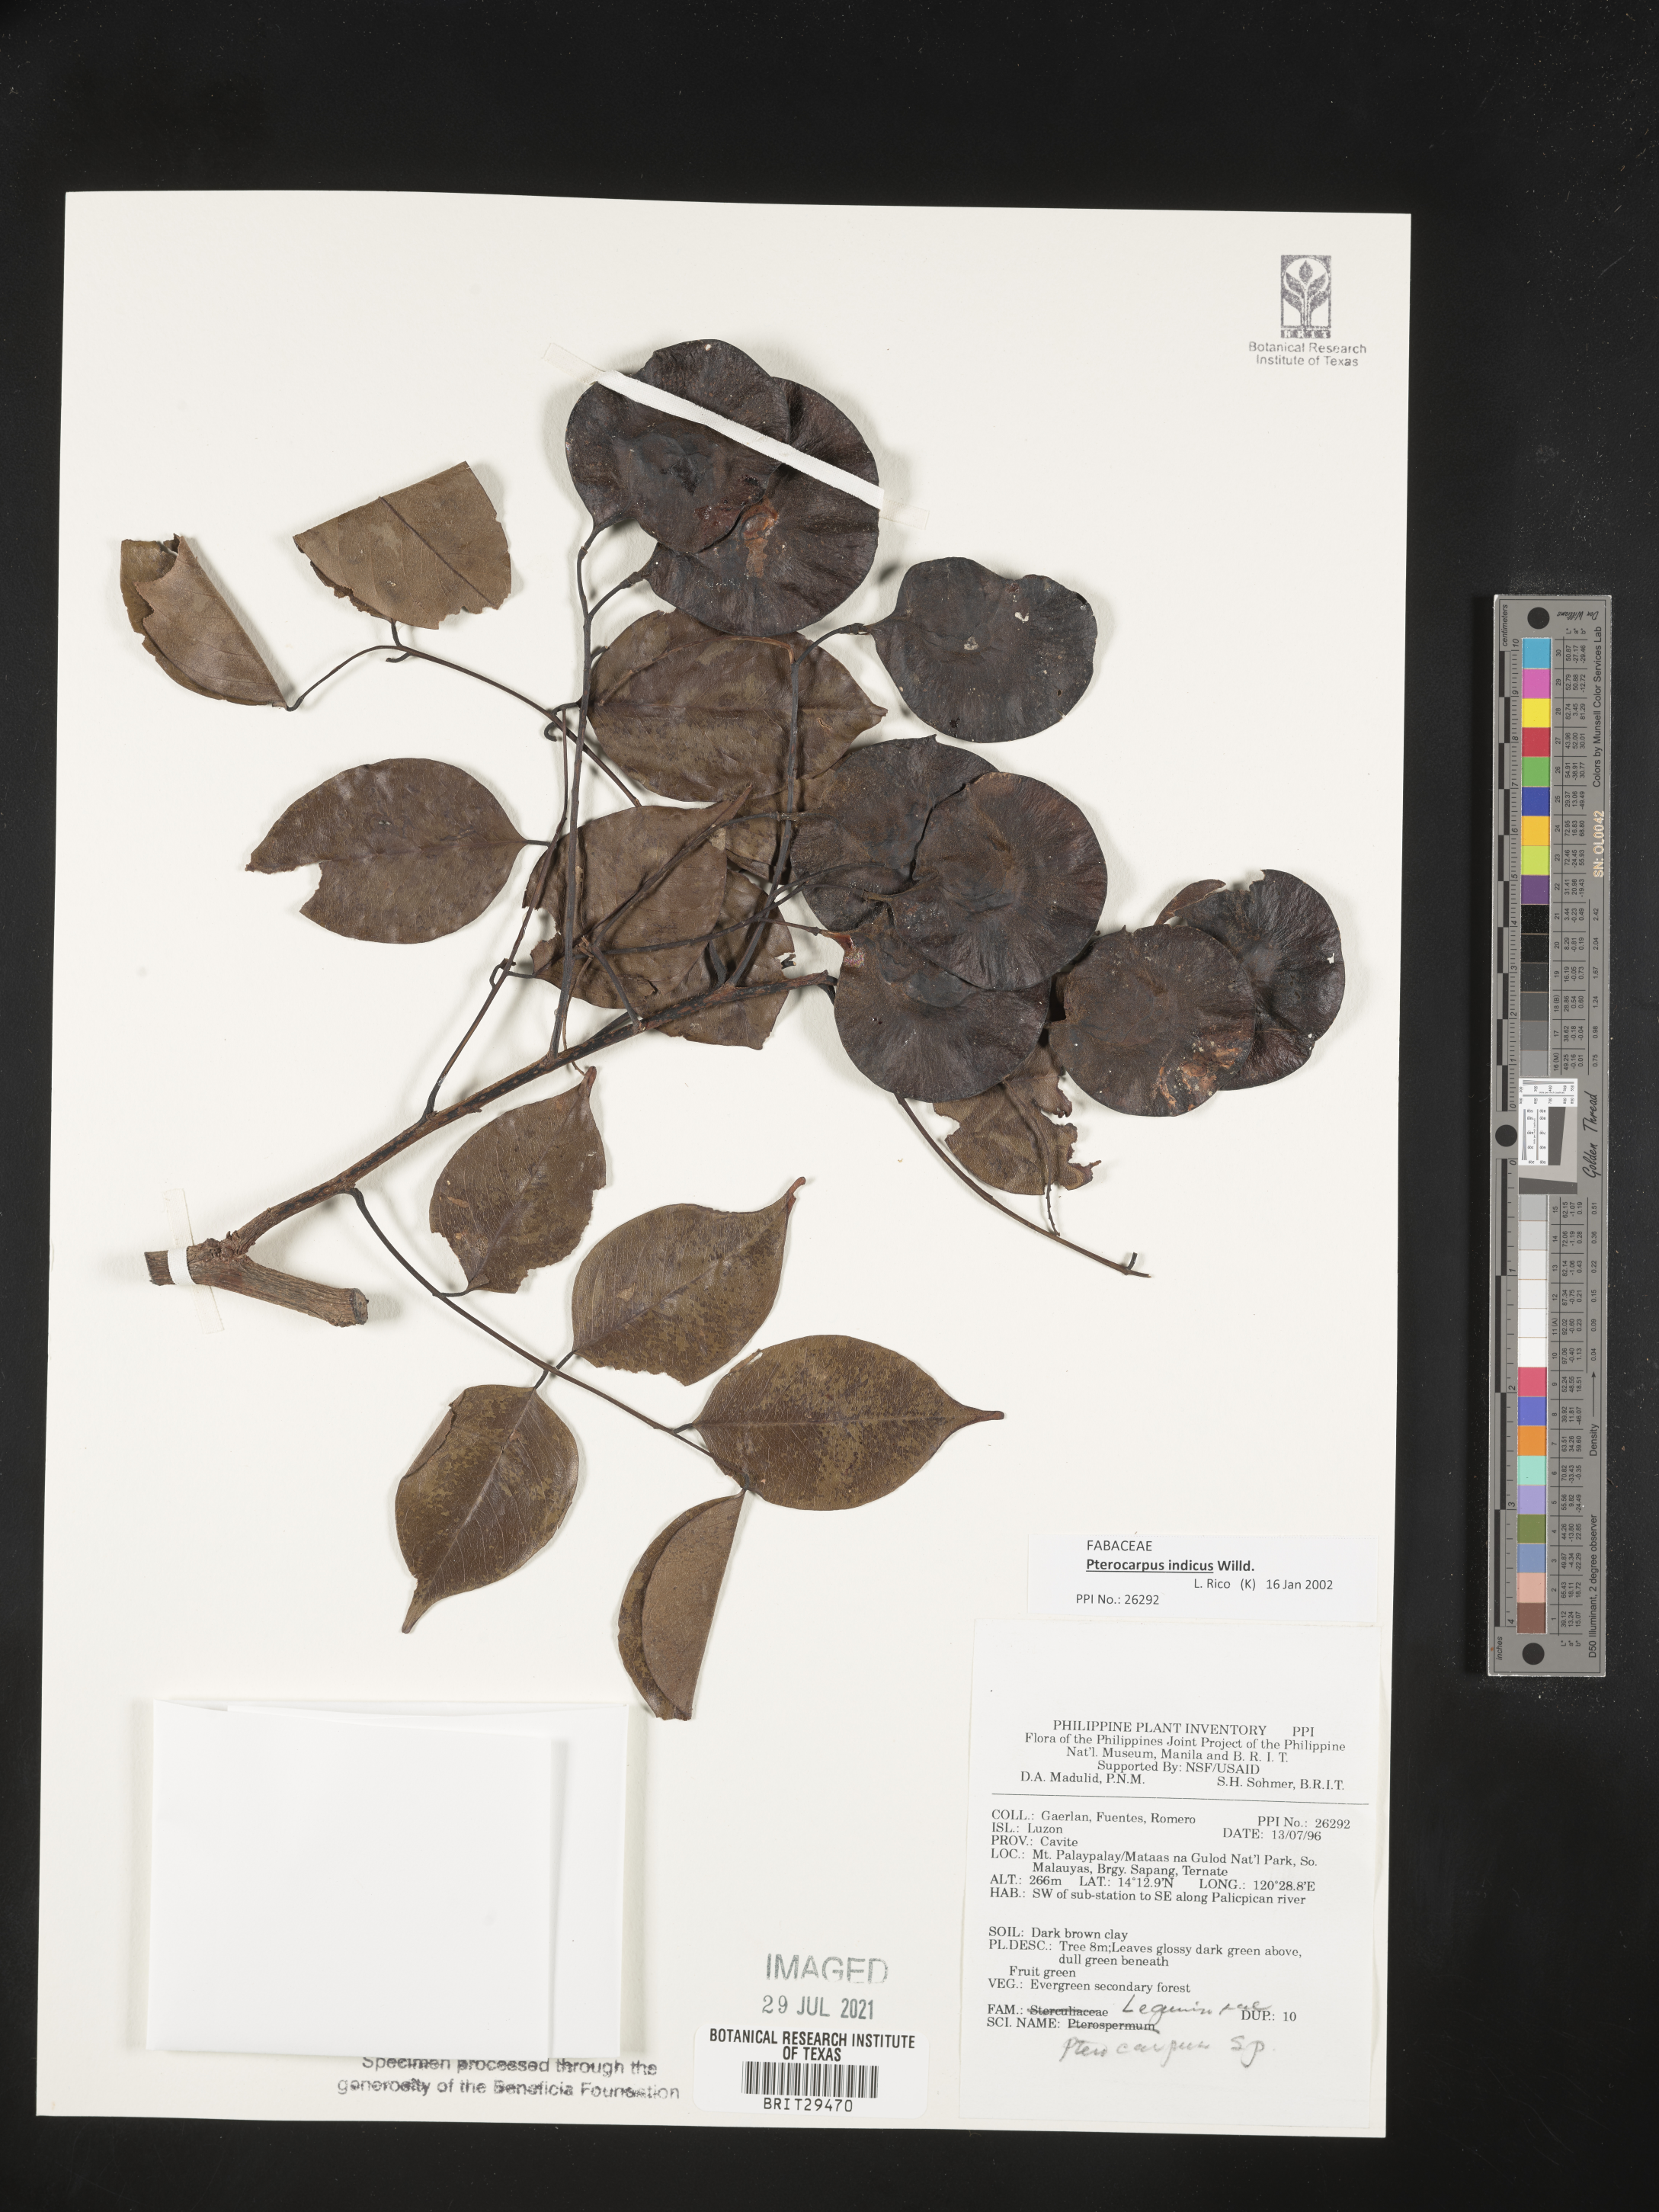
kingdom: Plantae
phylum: Tracheophyta
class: Magnoliopsida
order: Fabales
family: Fabaceae
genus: Pterocarpus
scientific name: Pterocarpus indicus
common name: Burmese rosewood
